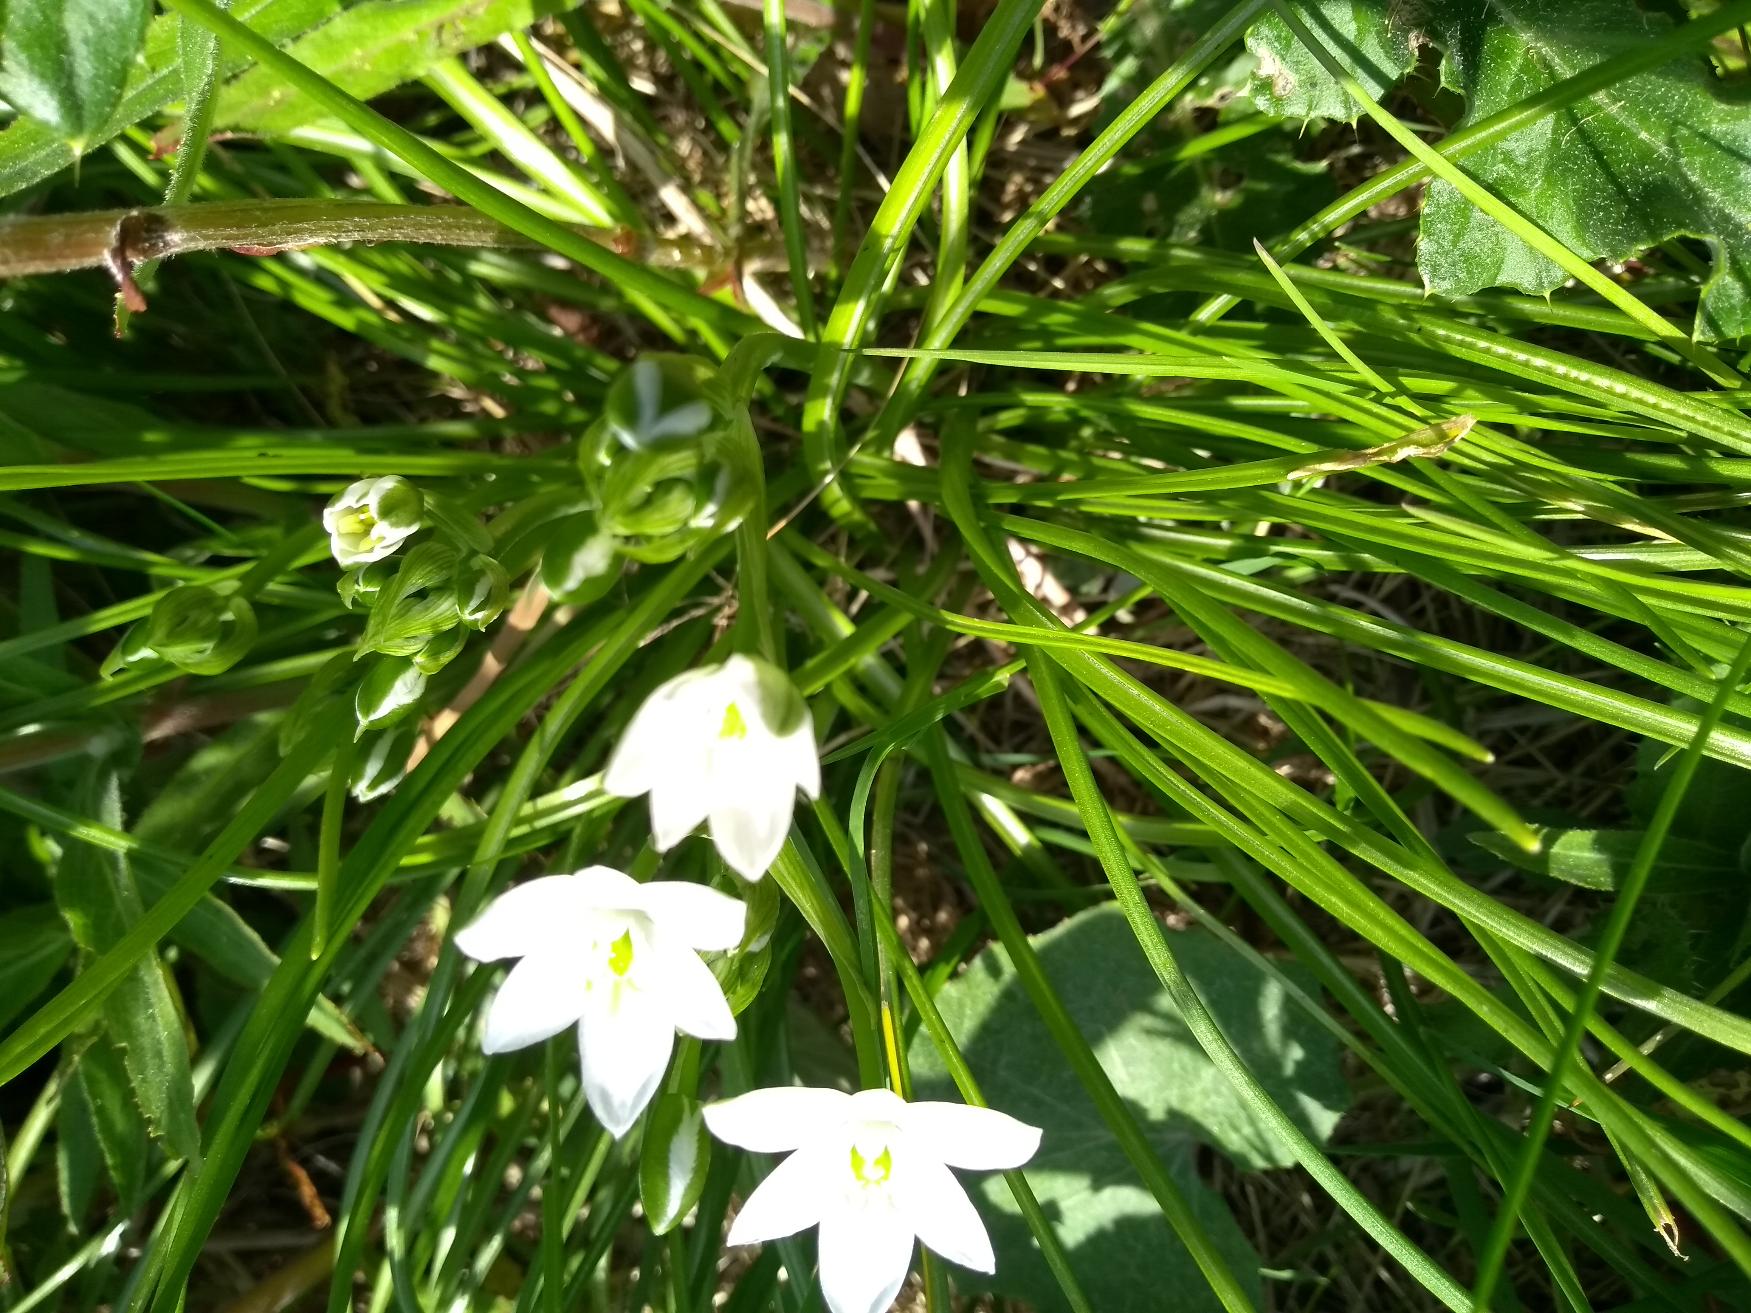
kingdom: Plantae
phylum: Tracheophyta
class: Liliopsida
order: Asparagales
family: Asparagaceae
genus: Ornithogalum
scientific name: Ornithogalum umbellatum
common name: Kost-fuglemælk
